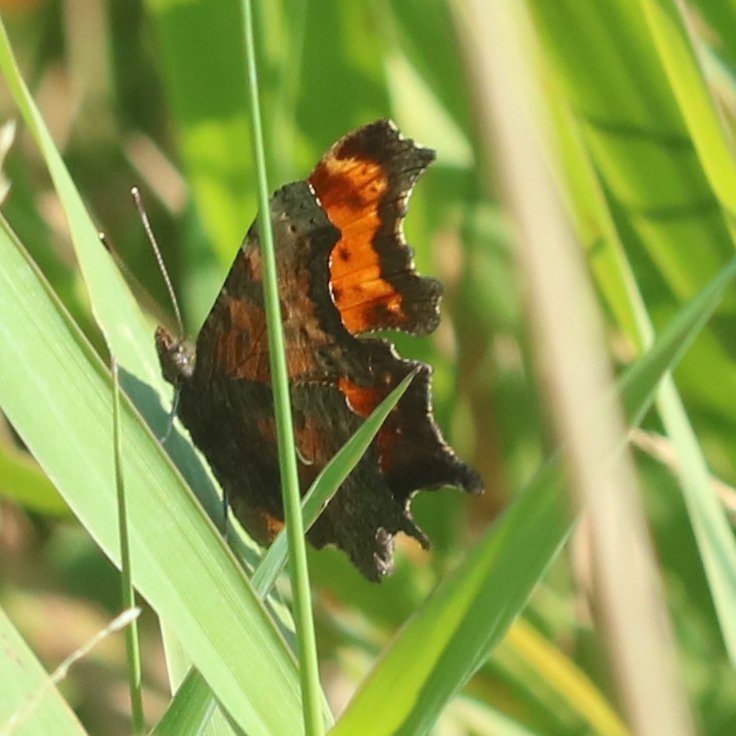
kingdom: Animalia
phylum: Arthropoda
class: Insecta
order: Lepidoptera
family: Nymphalidae
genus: Polygonia
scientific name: Polygonia progne
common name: Gray Comma
